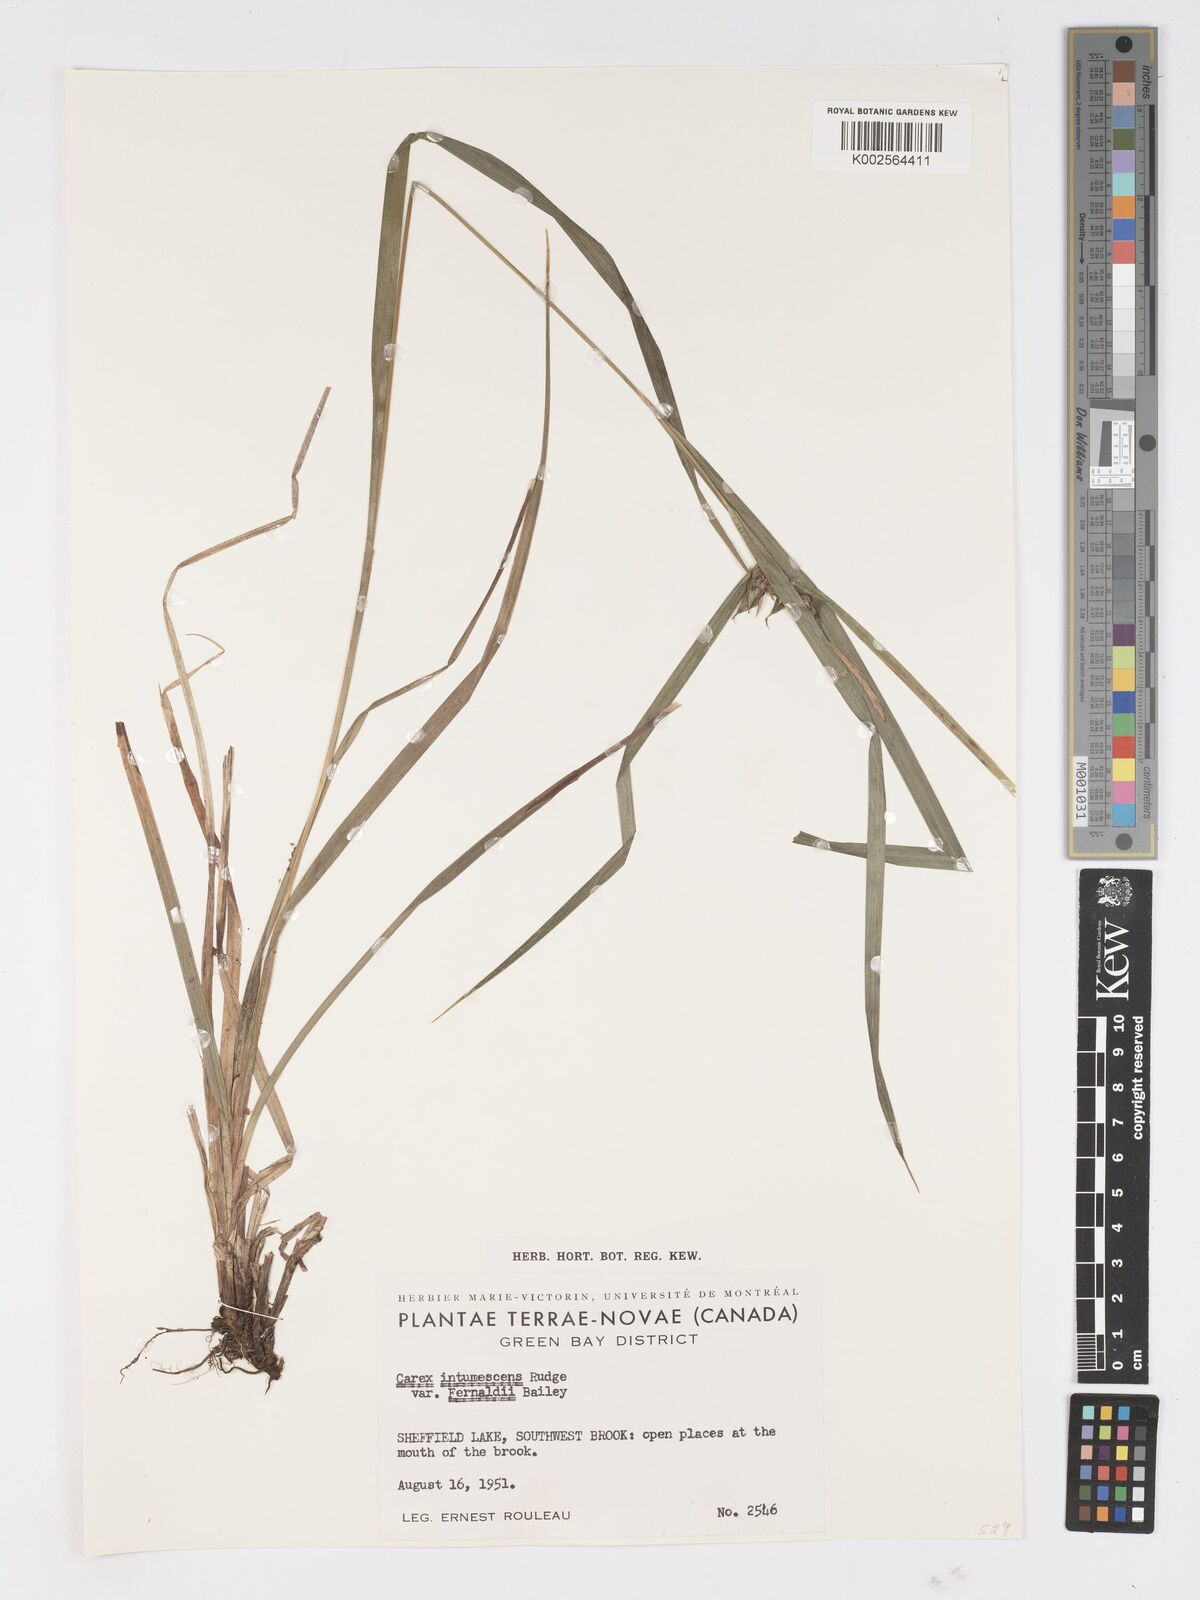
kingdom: Plantae
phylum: Tracheophyta
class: Liliopsida
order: Poales
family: Cyperaceae
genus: Carex
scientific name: Carex intumescens
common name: Greater bladder sedge
